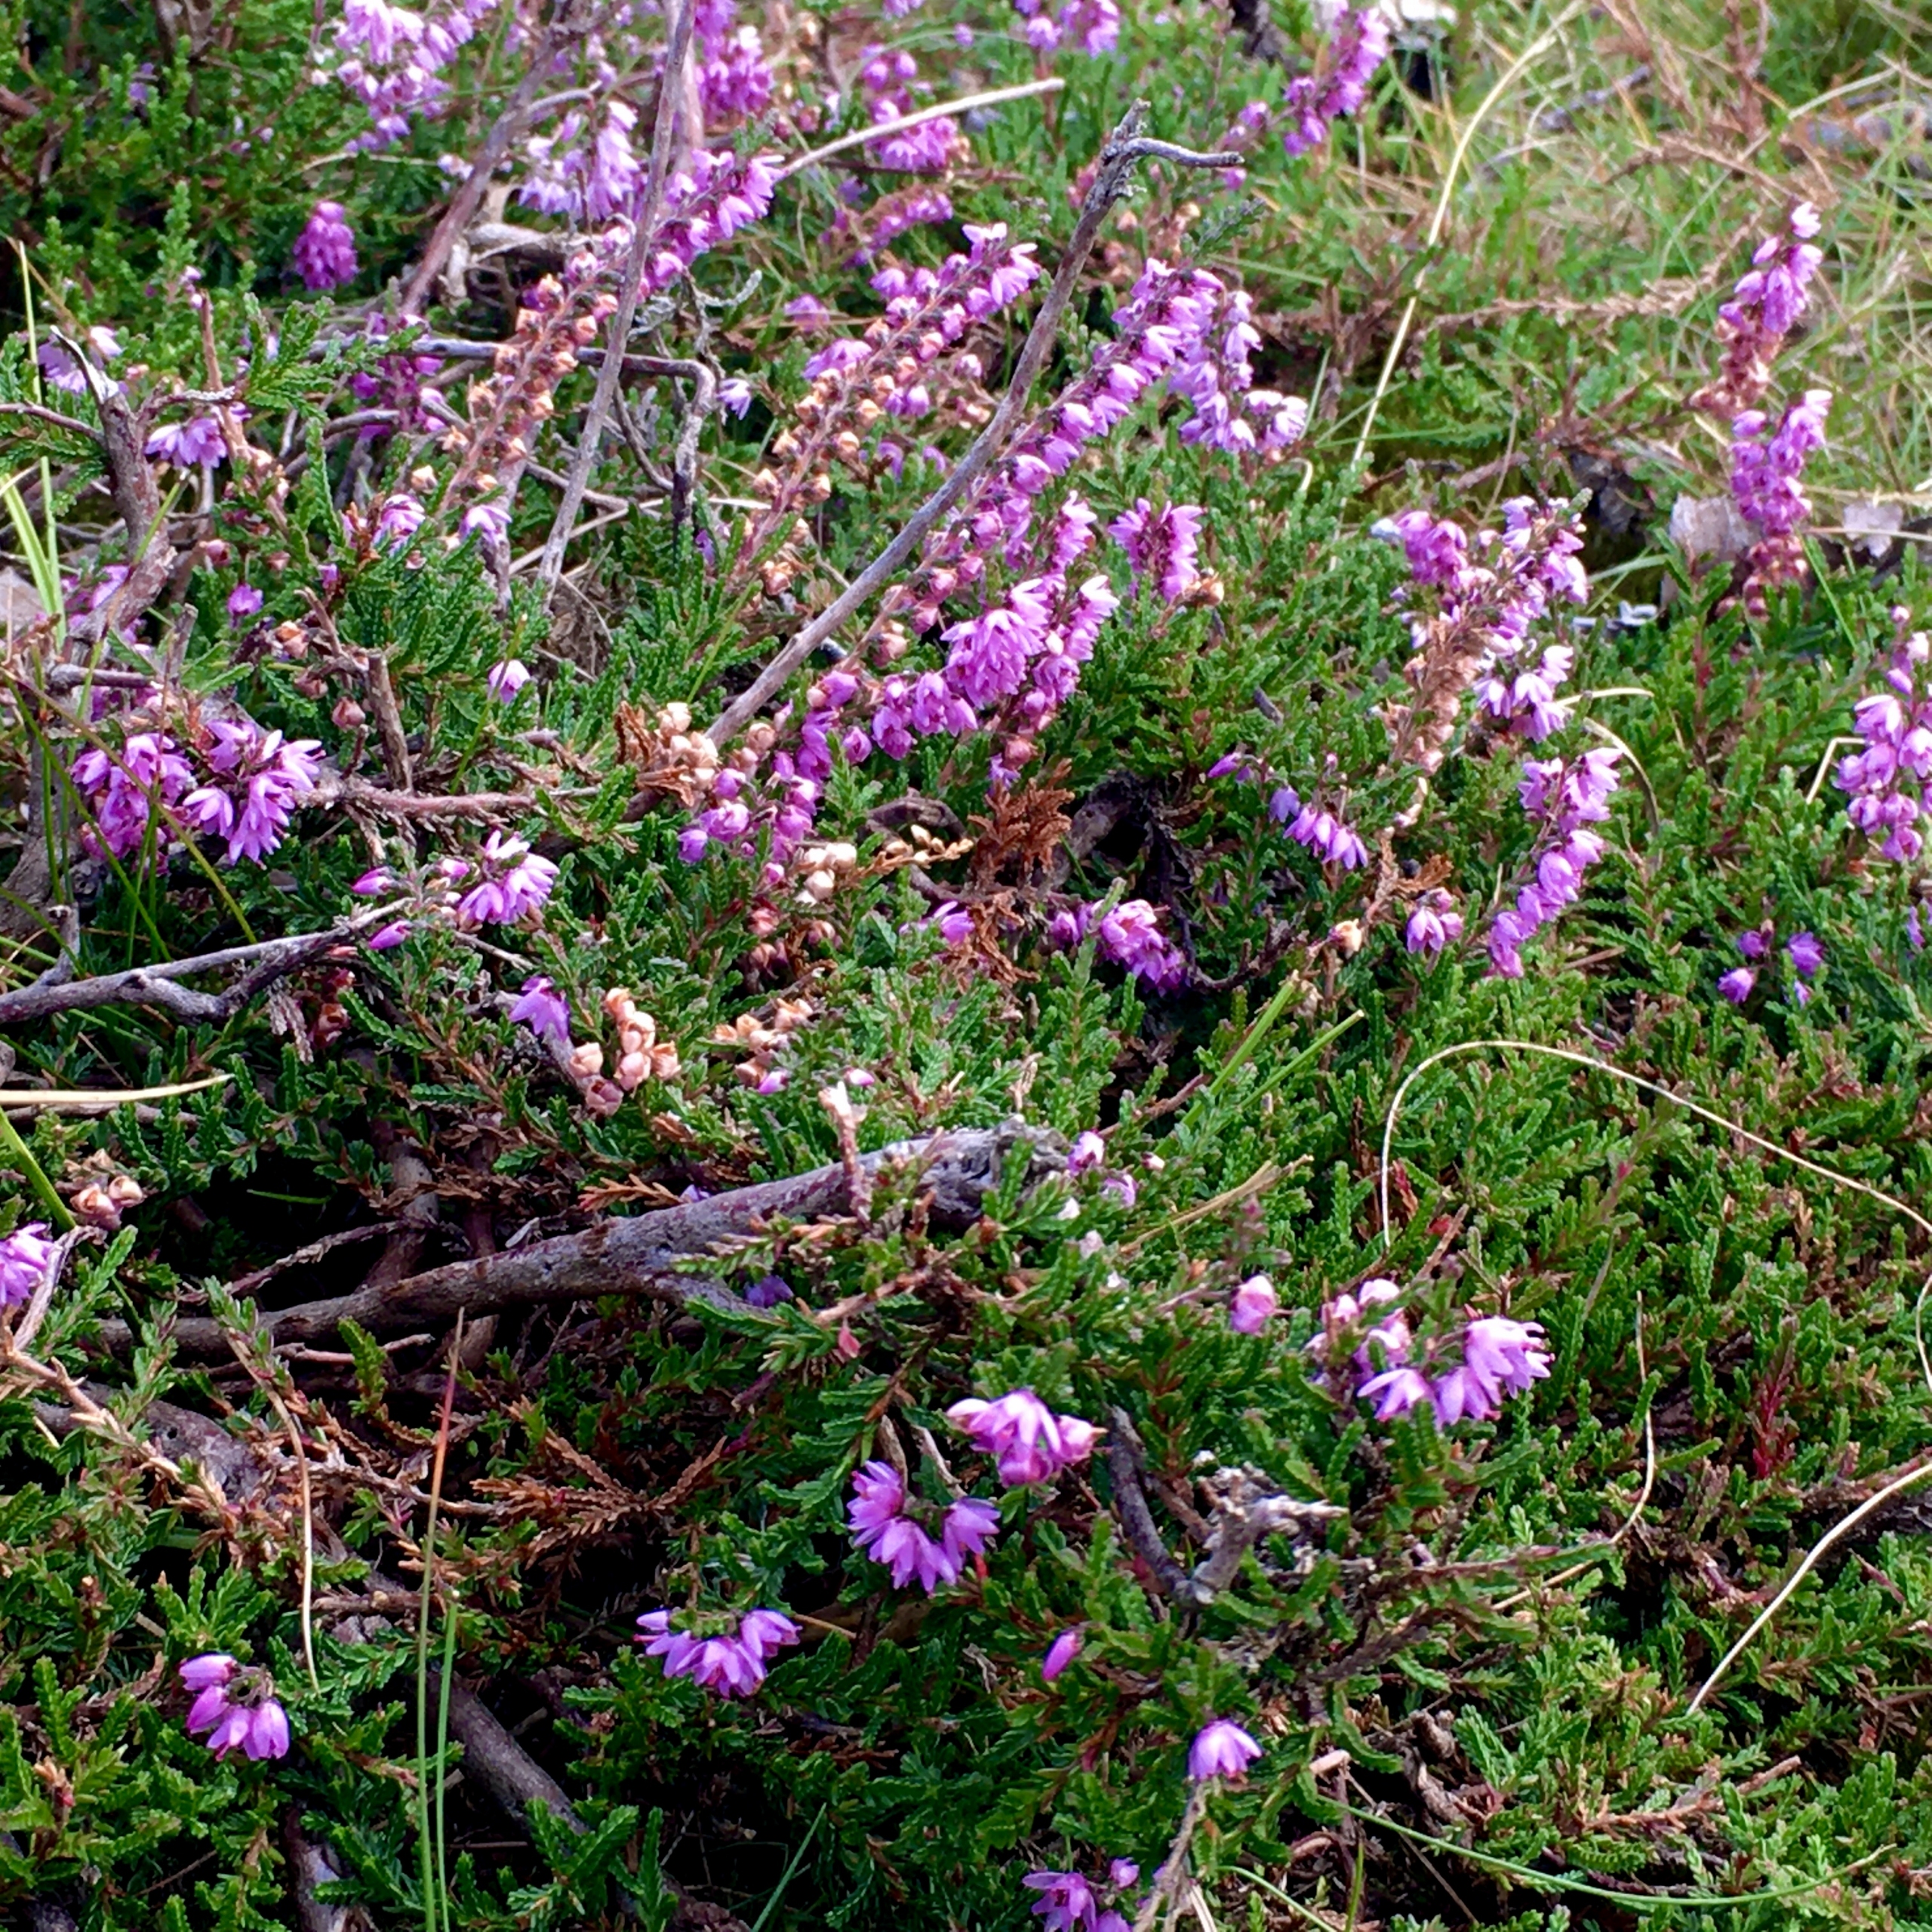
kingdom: Plantae
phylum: Tracheophyta
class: Magnoliopsida
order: Ericales
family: Ericaceae
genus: Calluna
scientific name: Calluna vulgaris
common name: Hedelyng
